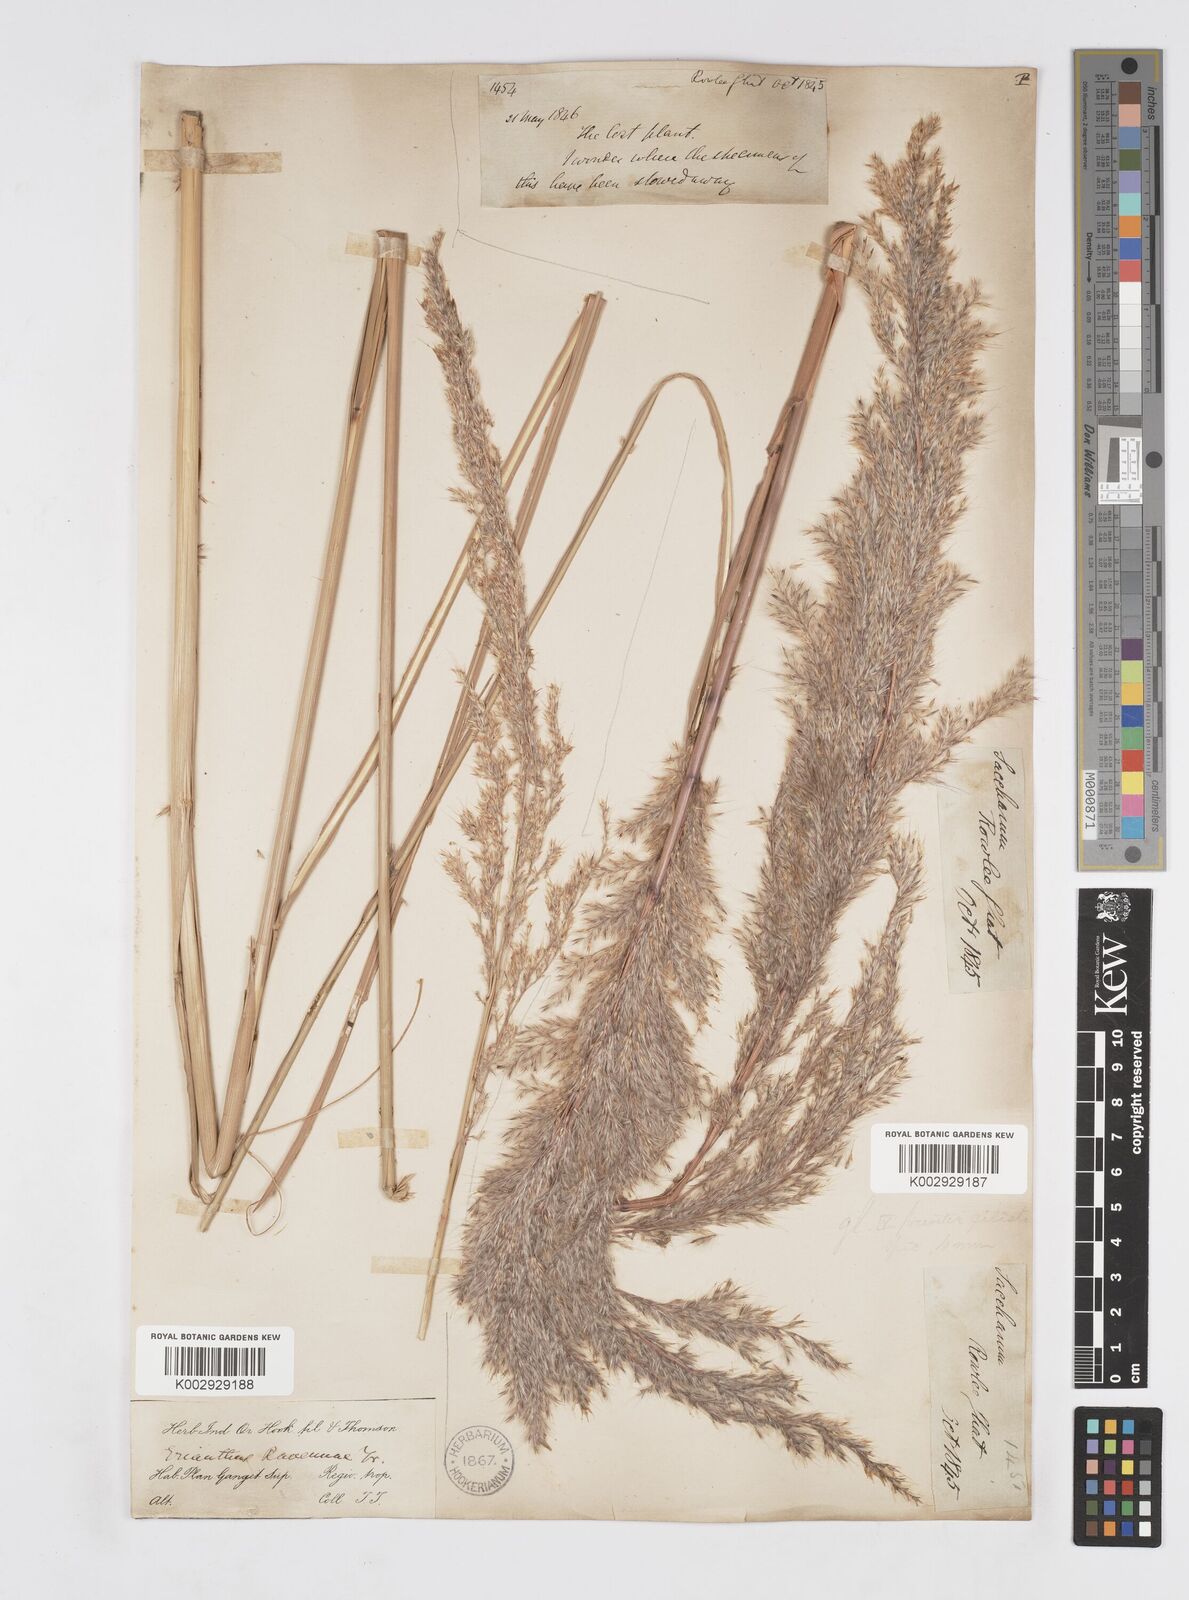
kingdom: Plantae
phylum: Tracheophyta
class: Liliopsida
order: Poales
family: Poaceae
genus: Tripidium
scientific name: Tripidium ravennae
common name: Ravenna grass
